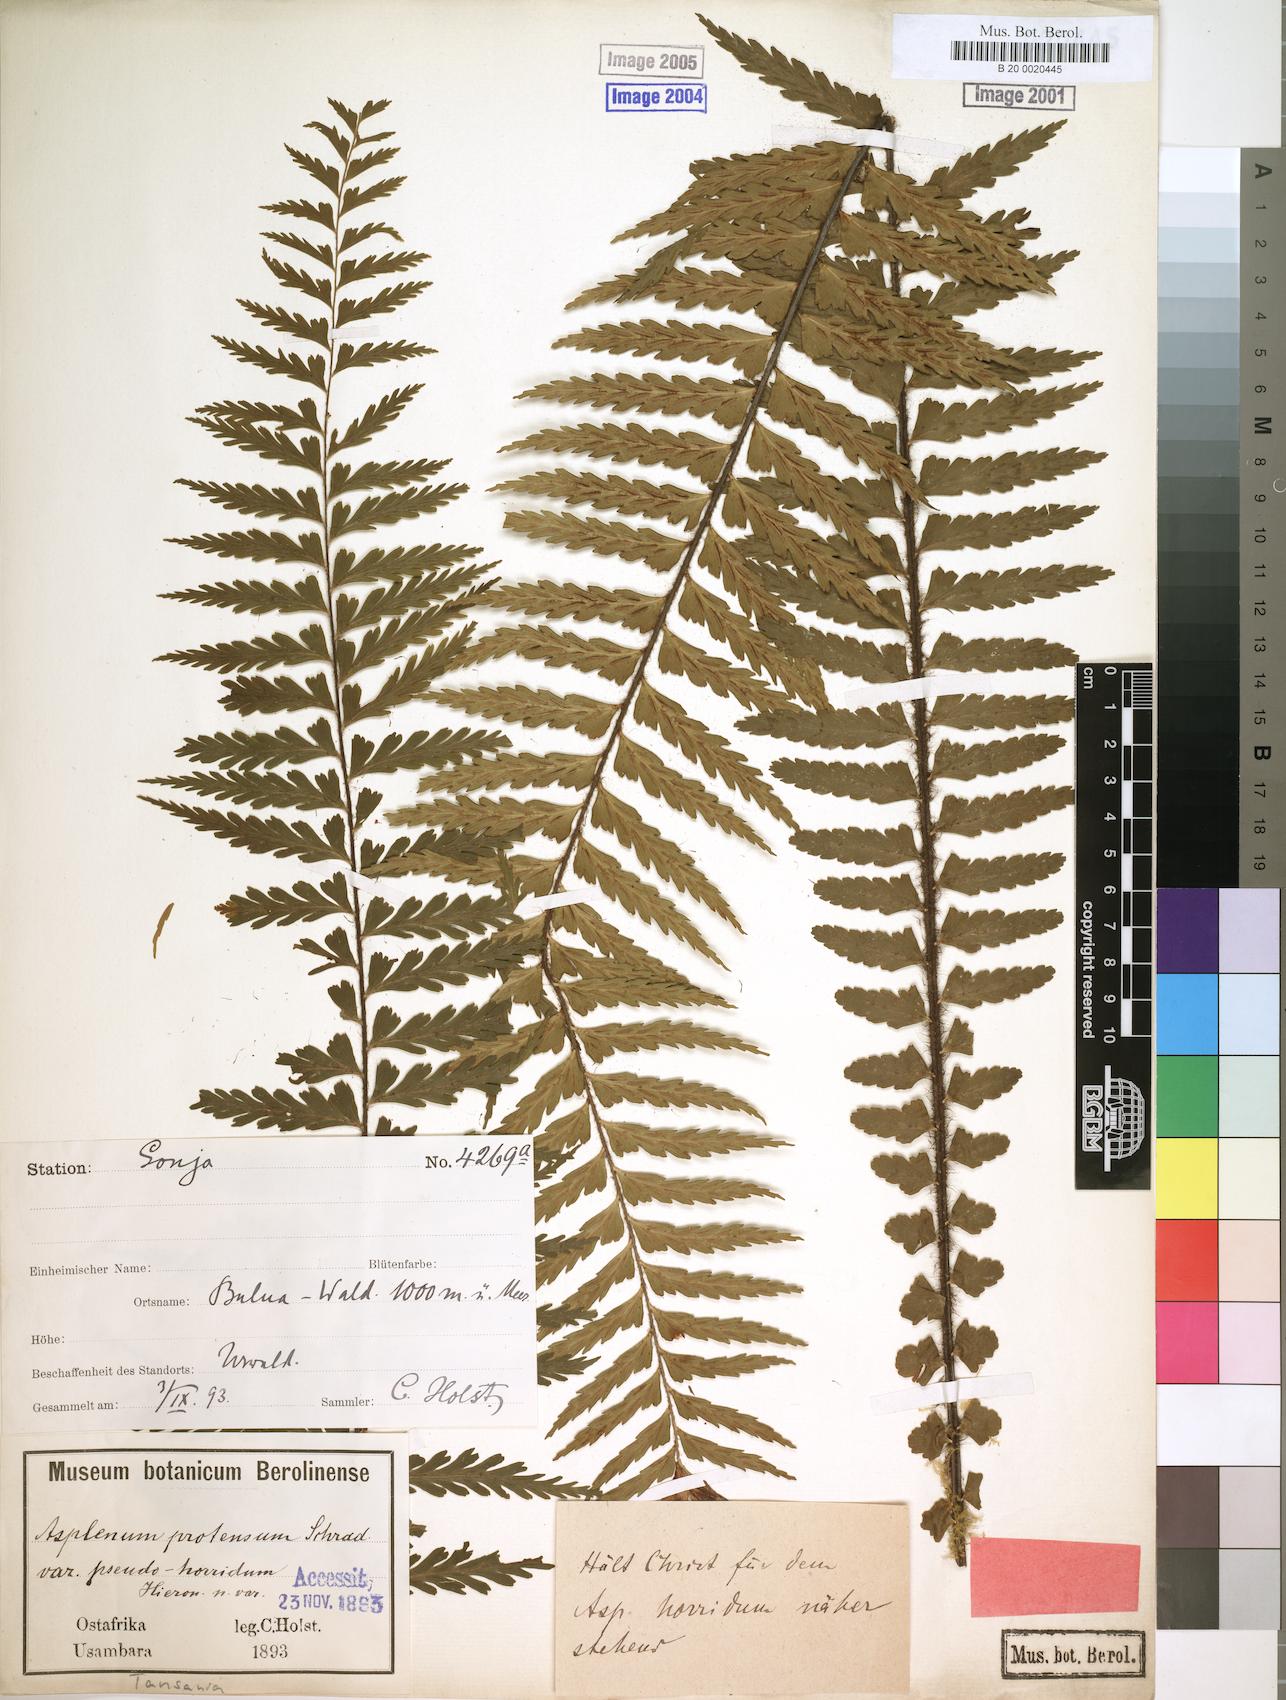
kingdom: Plantae
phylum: Tracheophyta
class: Polypodiopsida
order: Polypodiales
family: Aspleniaceae
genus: Asplenium
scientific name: Asplenium pellucidum
